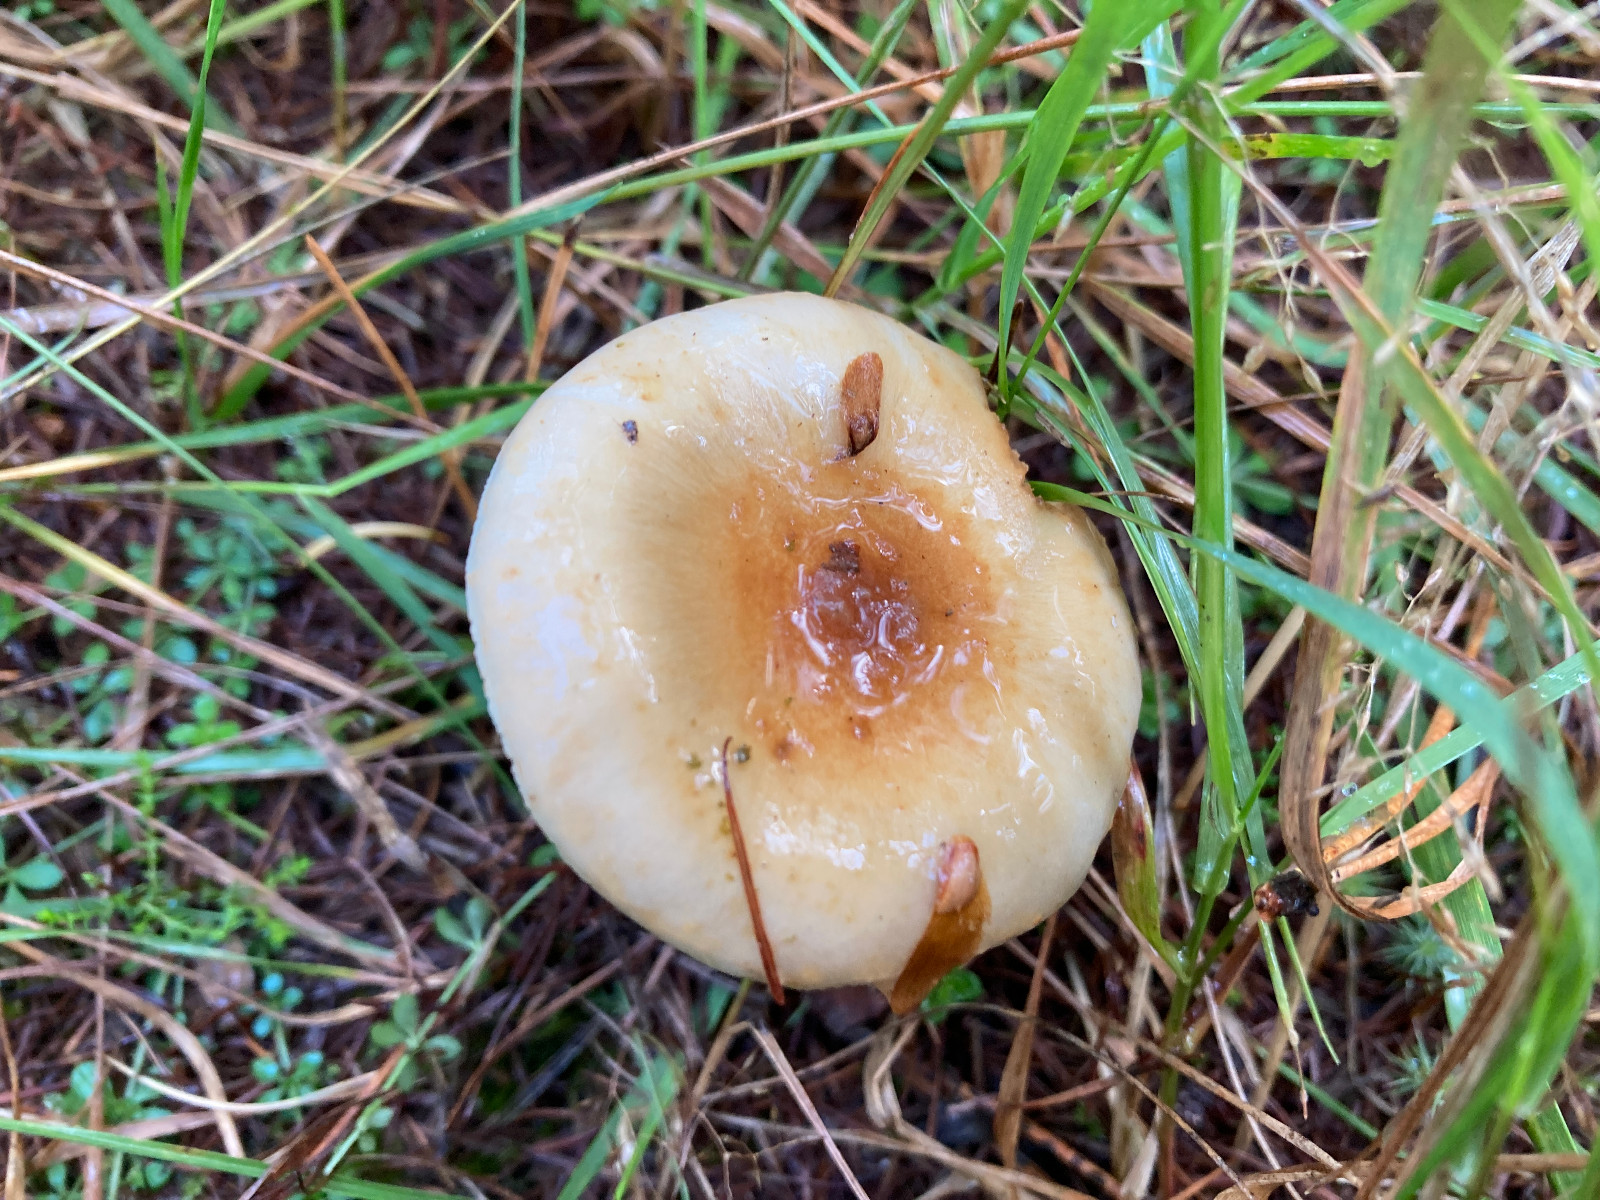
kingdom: Fungi
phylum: Basidiomycota
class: Agaricomycetes
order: Agaricales
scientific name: Agaricales
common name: champignonordenen
